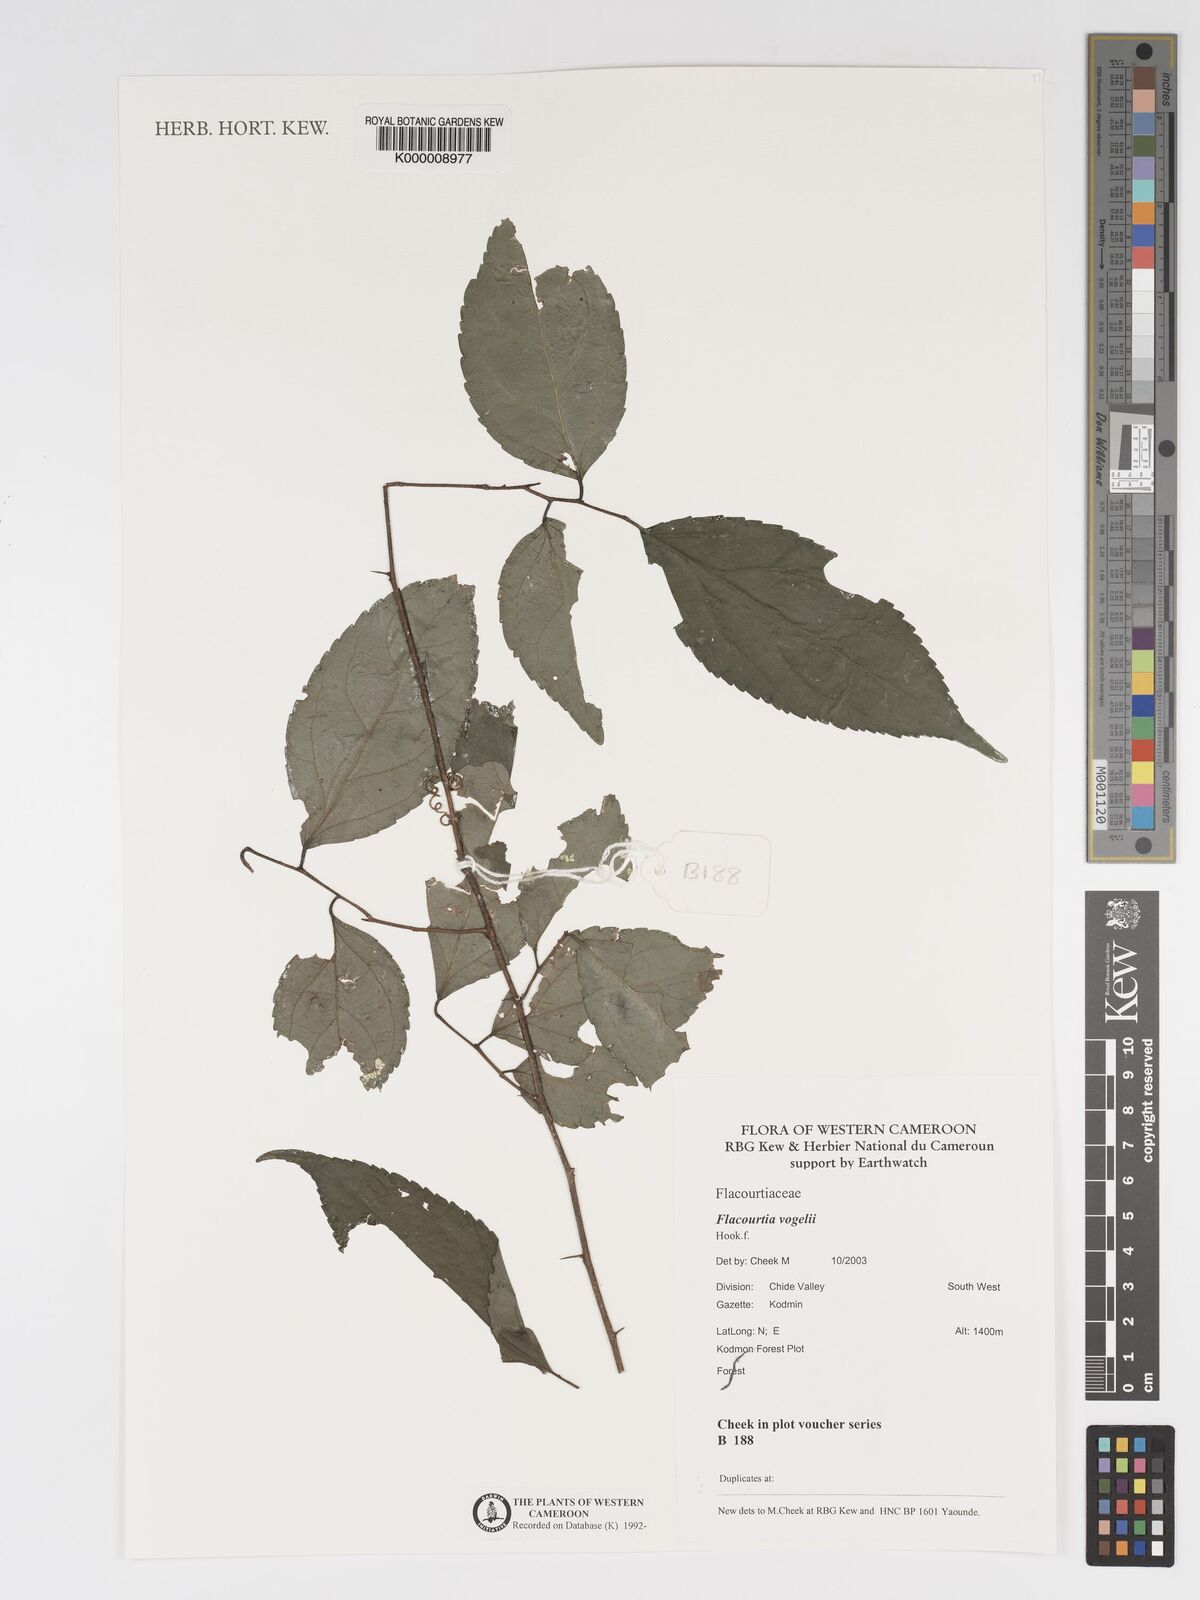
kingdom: Plantae
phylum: Tracheophyta
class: Magnoliopsida
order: Malpighiales
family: Salicaceae
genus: Flacourtia
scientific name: Flacourtia vogelii
